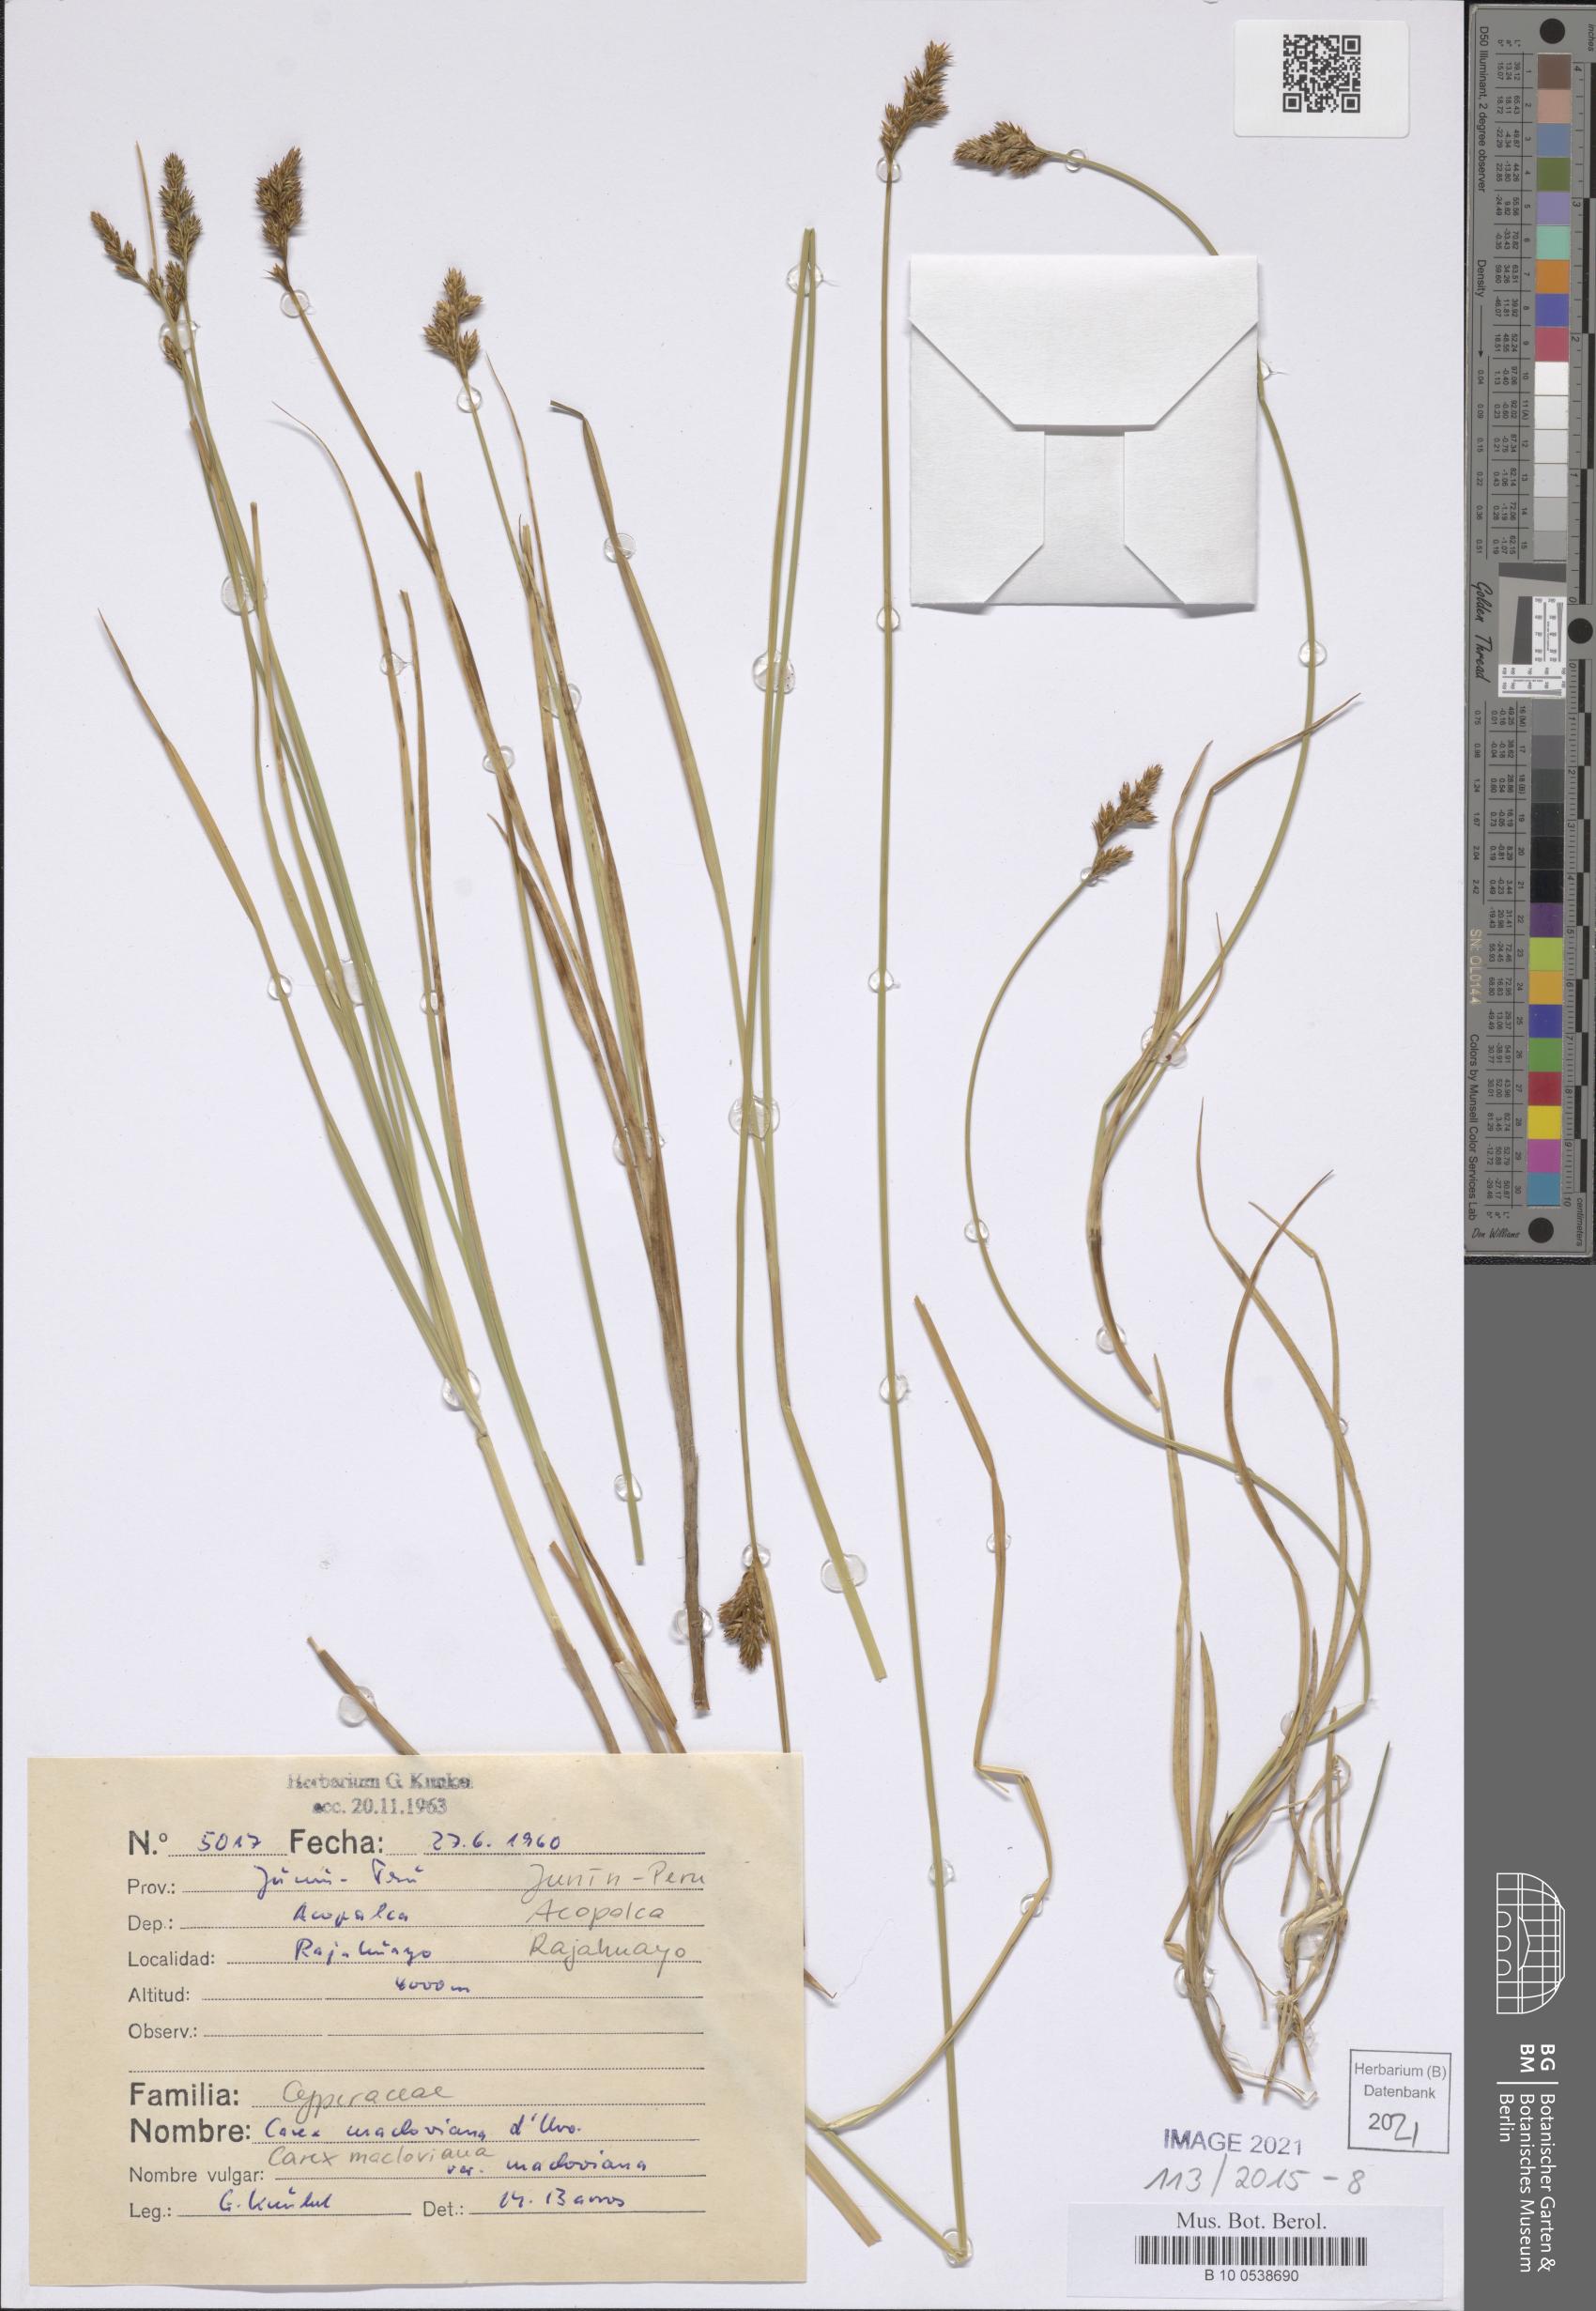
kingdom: Plantae
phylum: Tracheophyta
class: Liliopsida
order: Poales
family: Cyperaceae
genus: Carex
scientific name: Carex macloviana
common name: Falkland island sedge
